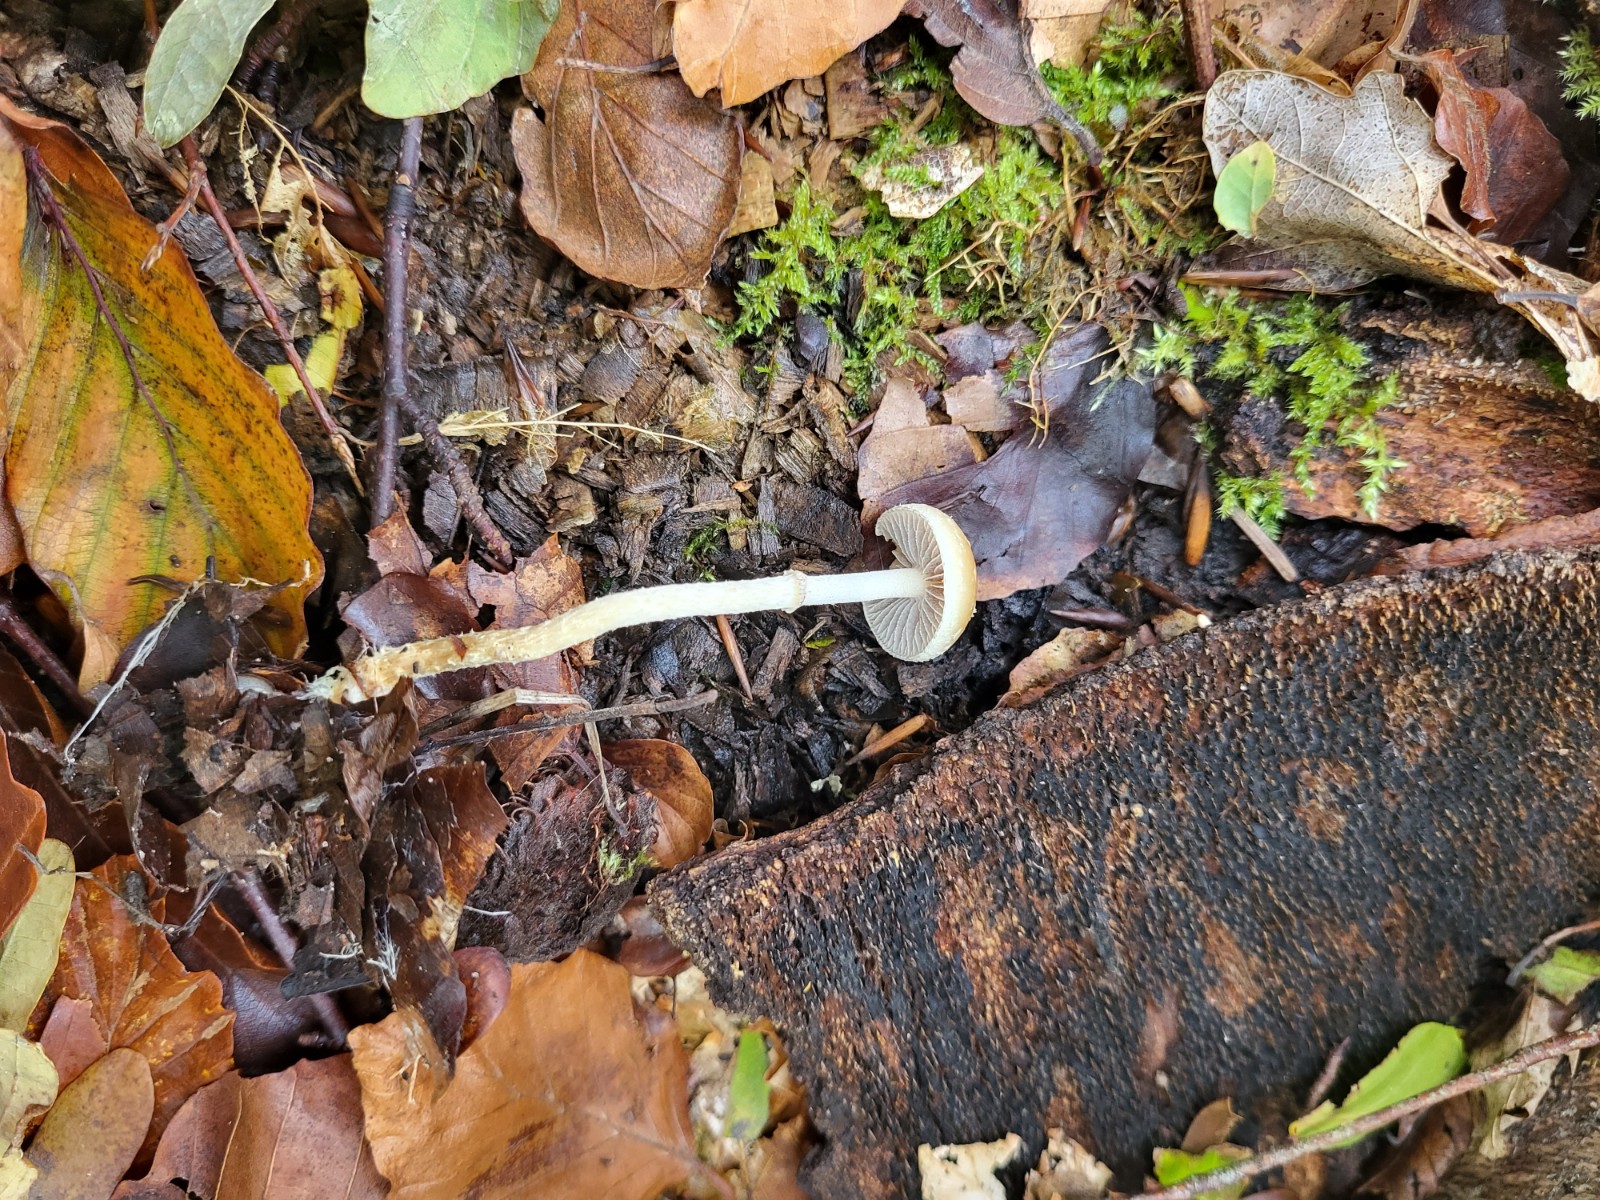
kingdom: Fungi
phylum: Basidiomycota
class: Agaricomycetes
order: Agaricales
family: Bolbitiaceae
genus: Pholiotina
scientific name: Pholiotina teneroides
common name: tosporet dansehat
